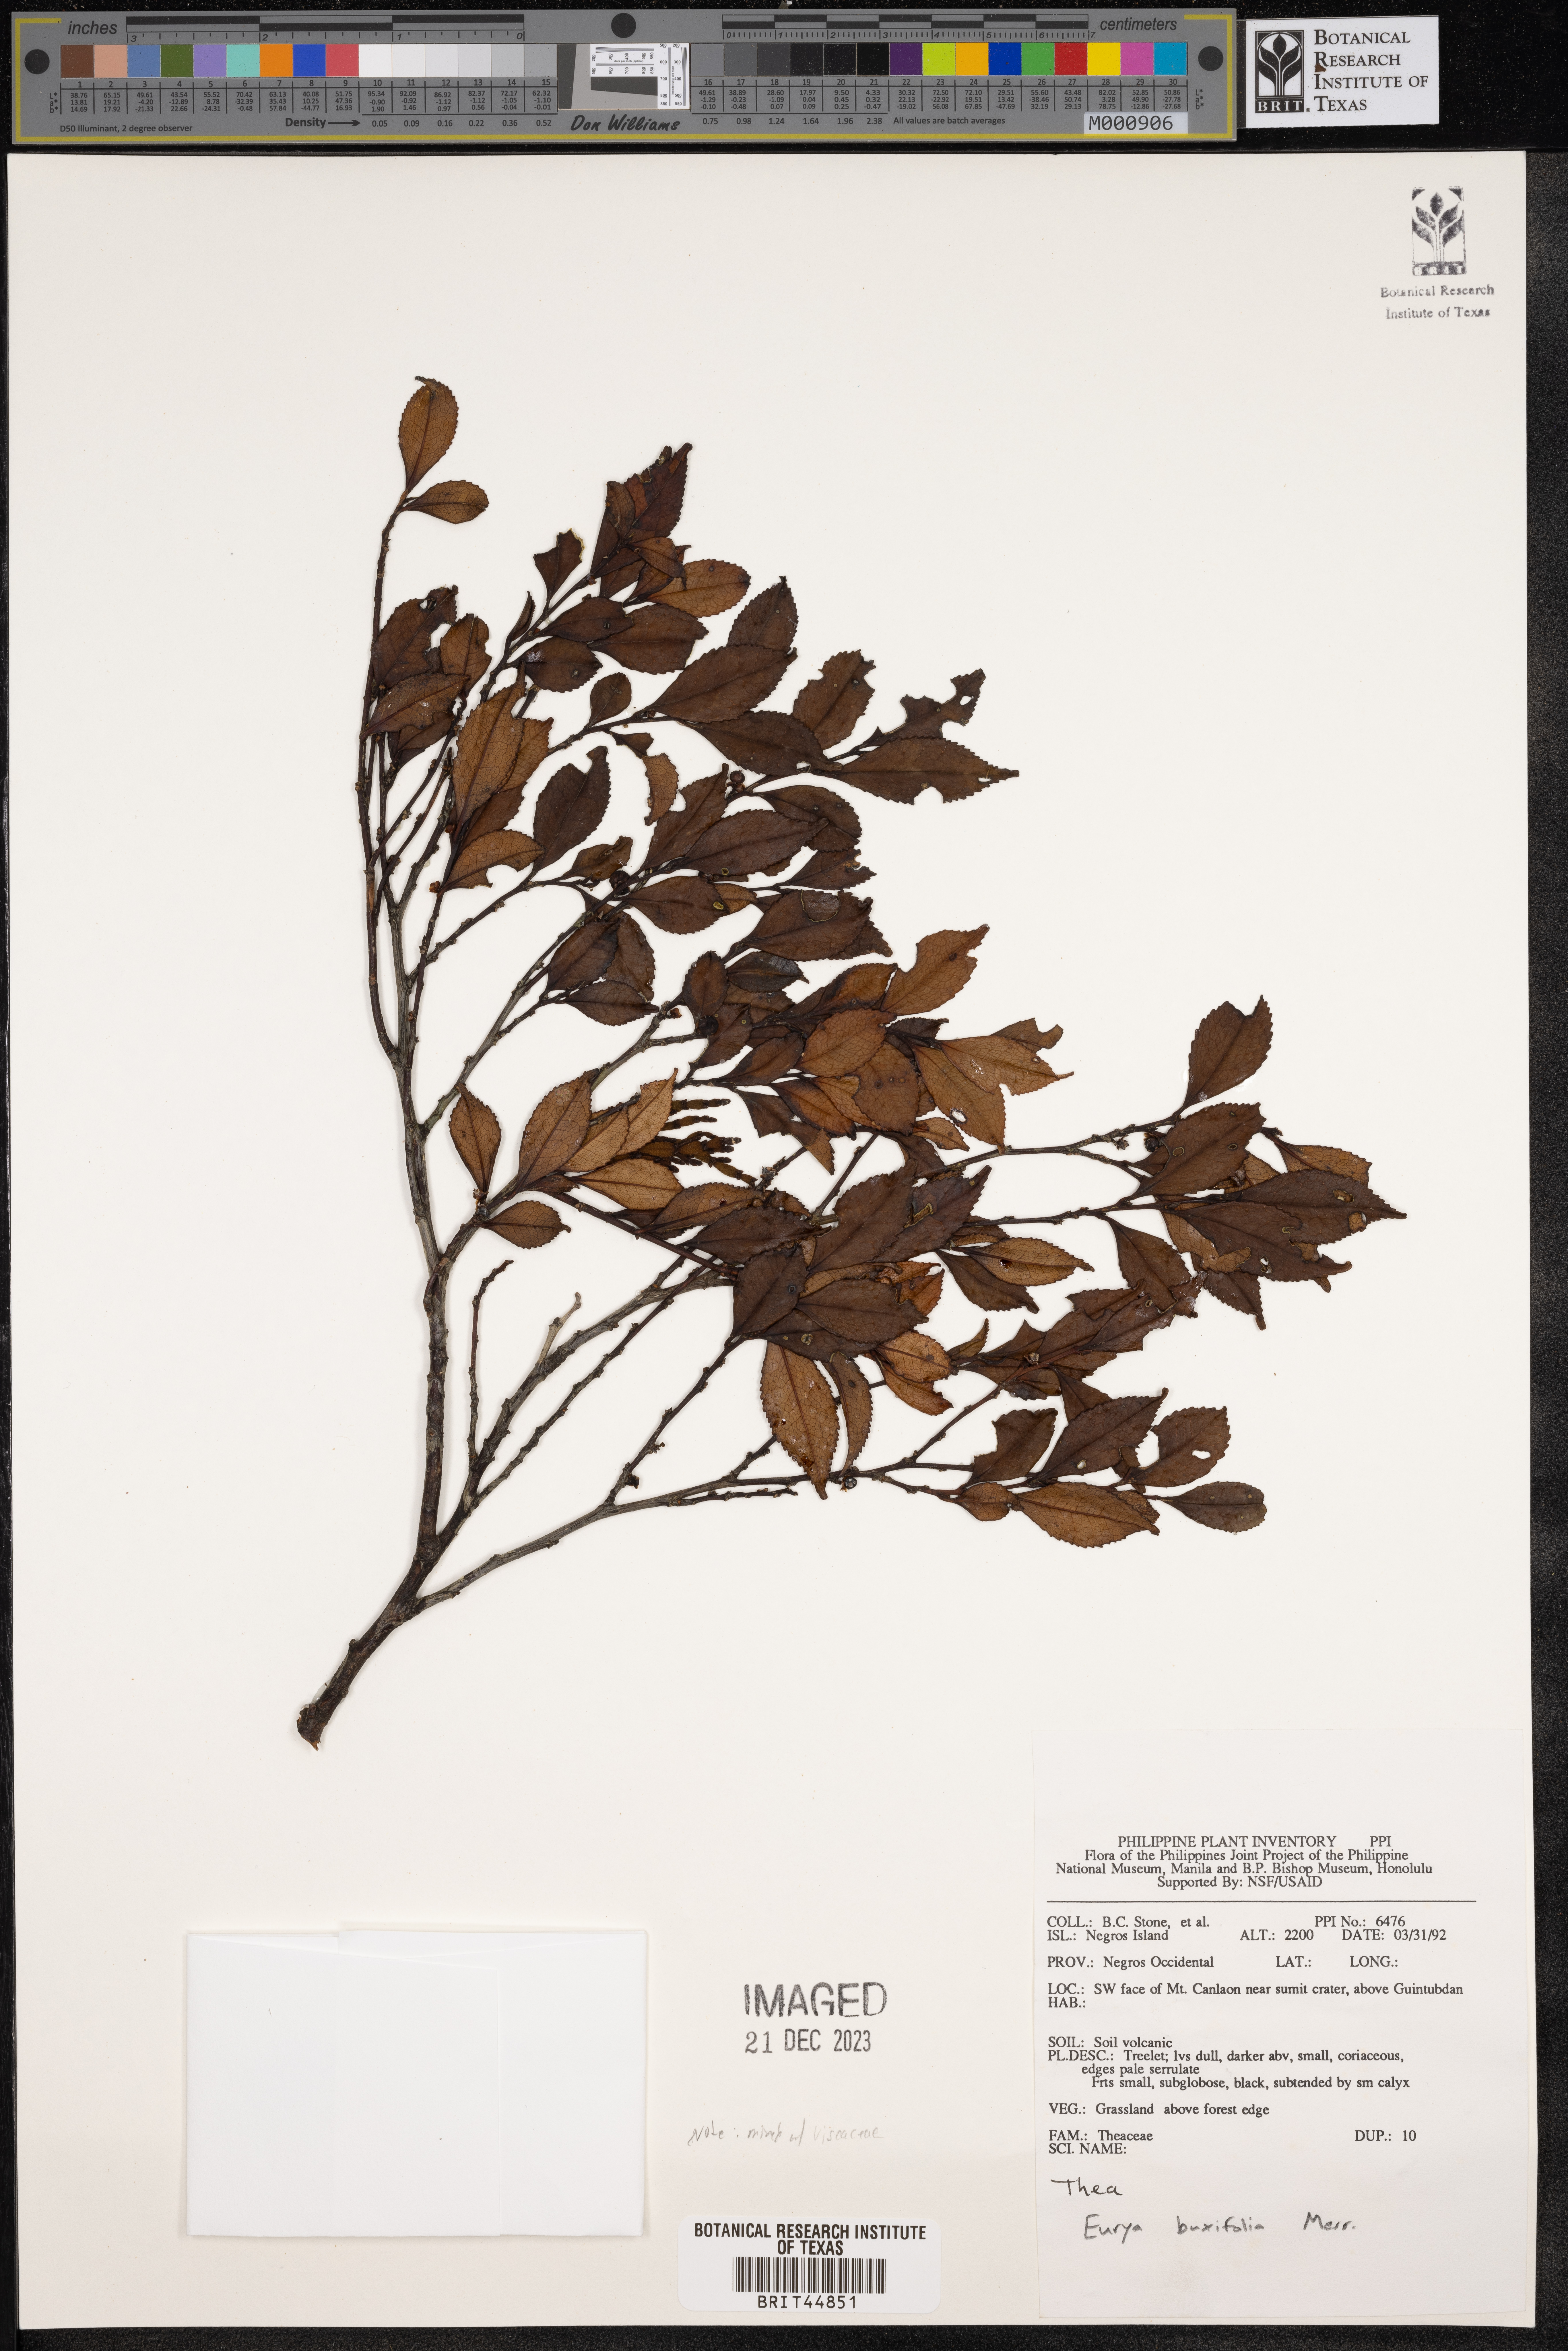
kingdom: Plantae
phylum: Tracheophyta
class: Magnoliopsida
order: Ericales
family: Pentaphylacaceae
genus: Eurya
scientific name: Eurya buxifolia
